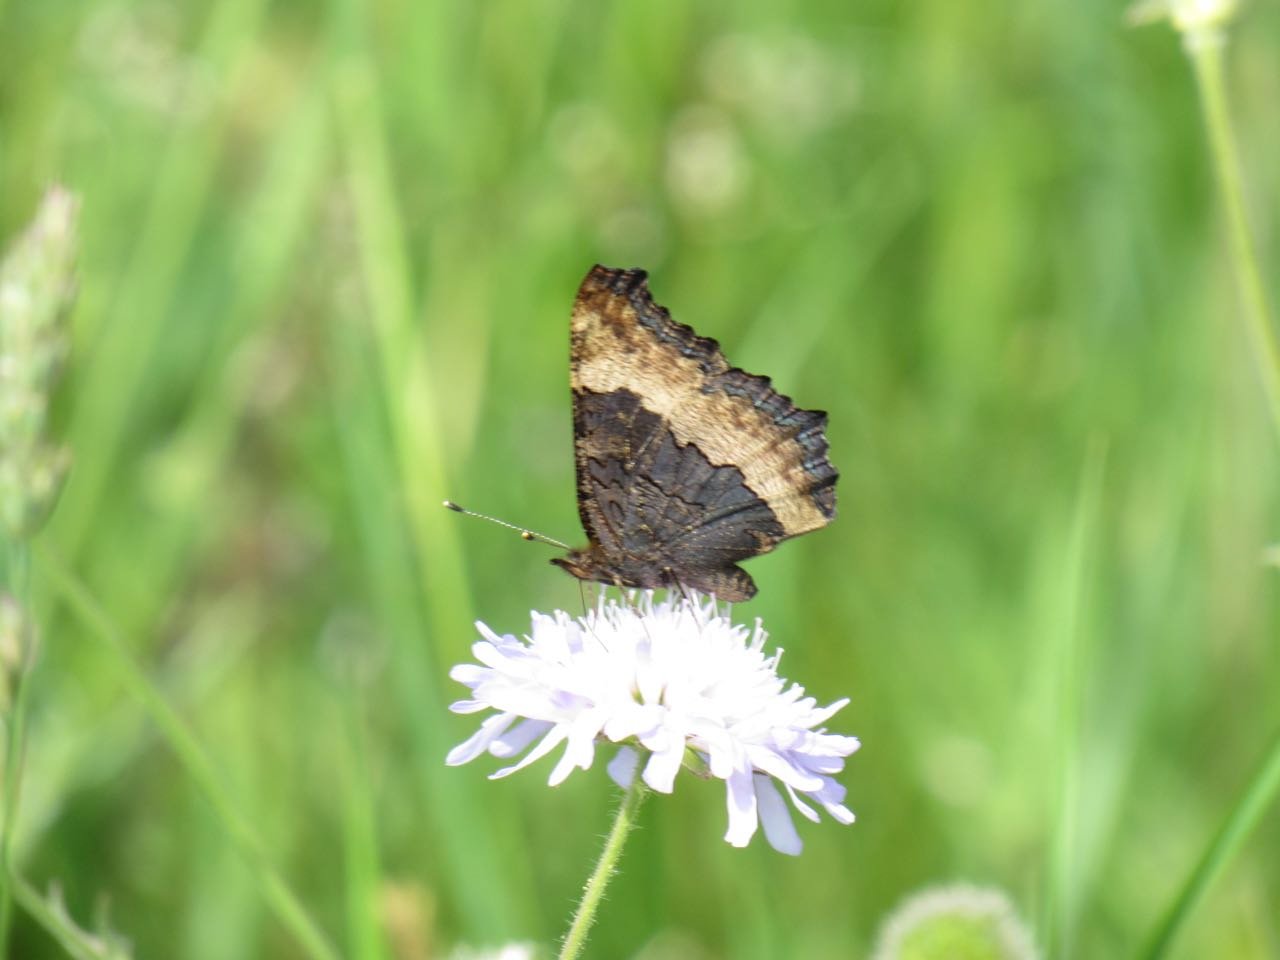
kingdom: Animalia
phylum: Arthropoda
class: Insecta
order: Lepidoptera
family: Nymphalidae
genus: Aglais
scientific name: Aglais milberti
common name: Milbert's Tortoiseshell
